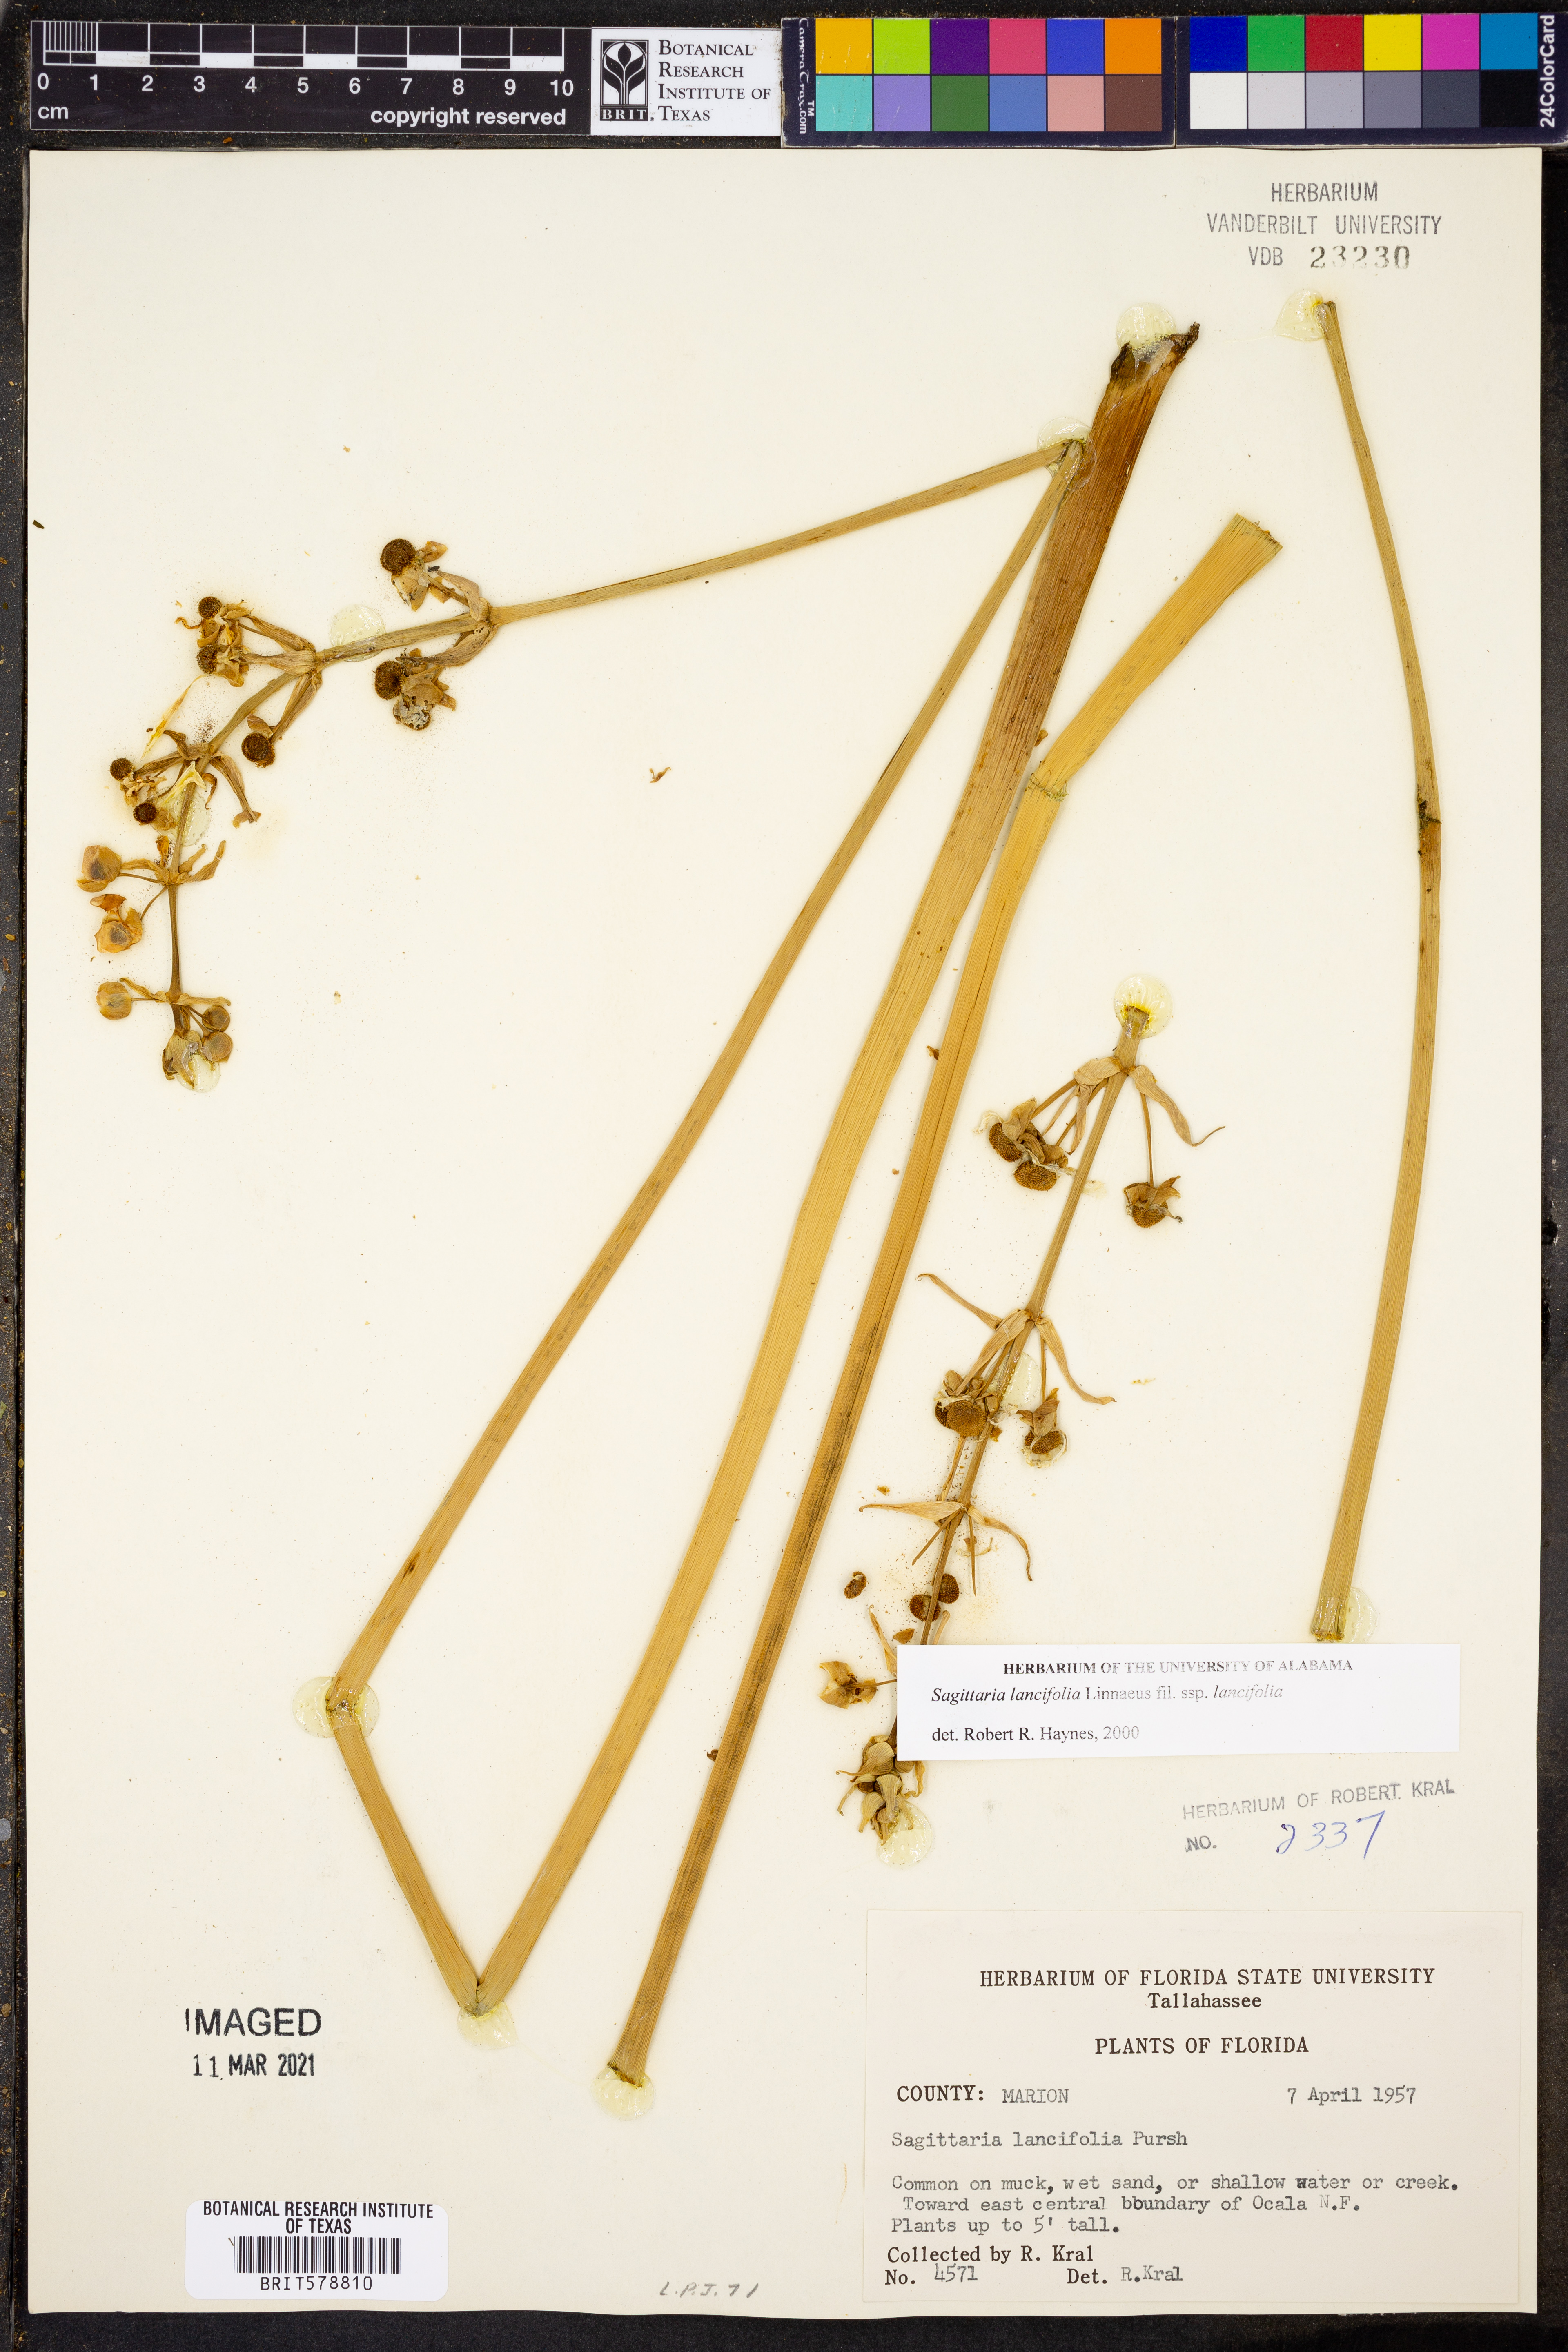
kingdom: Plantae
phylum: Tracheophyta
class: Liliopsida
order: Alismatales
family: Alismataceae
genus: Sagittaria
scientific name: Sagittaria lancifolia
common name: Lance-leaf arrowhead
